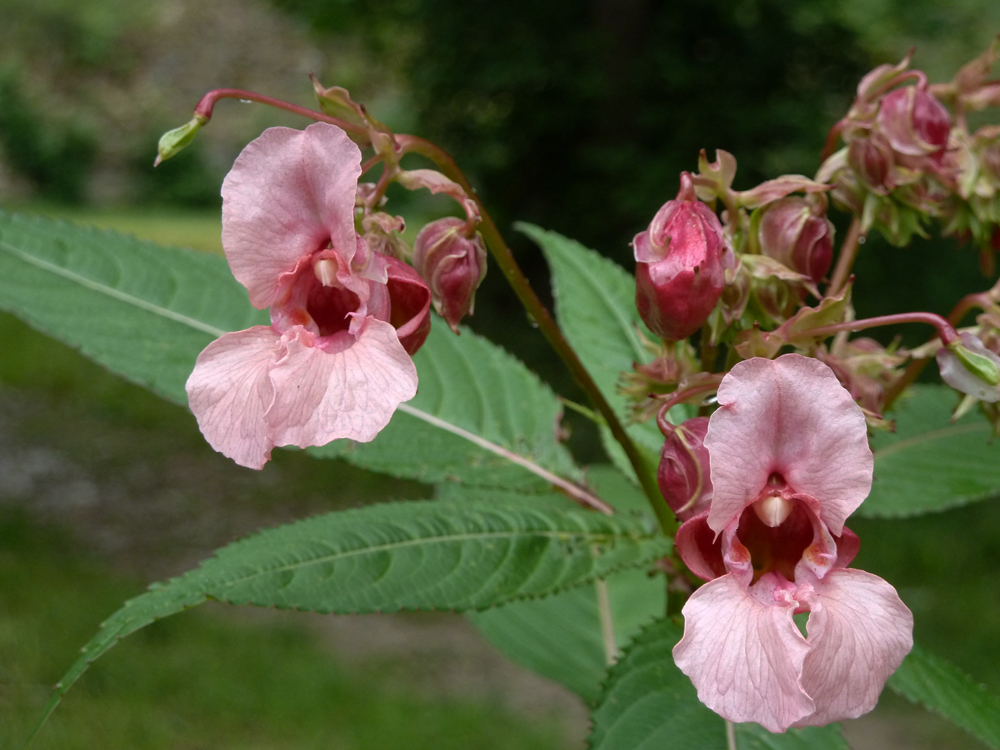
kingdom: Plantae
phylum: Tracheophyta
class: Magnoliopsida
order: Ericales
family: Balsaminaceae
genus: Impatiens
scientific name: Impatiens glandulifera
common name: Himalayan balsam
